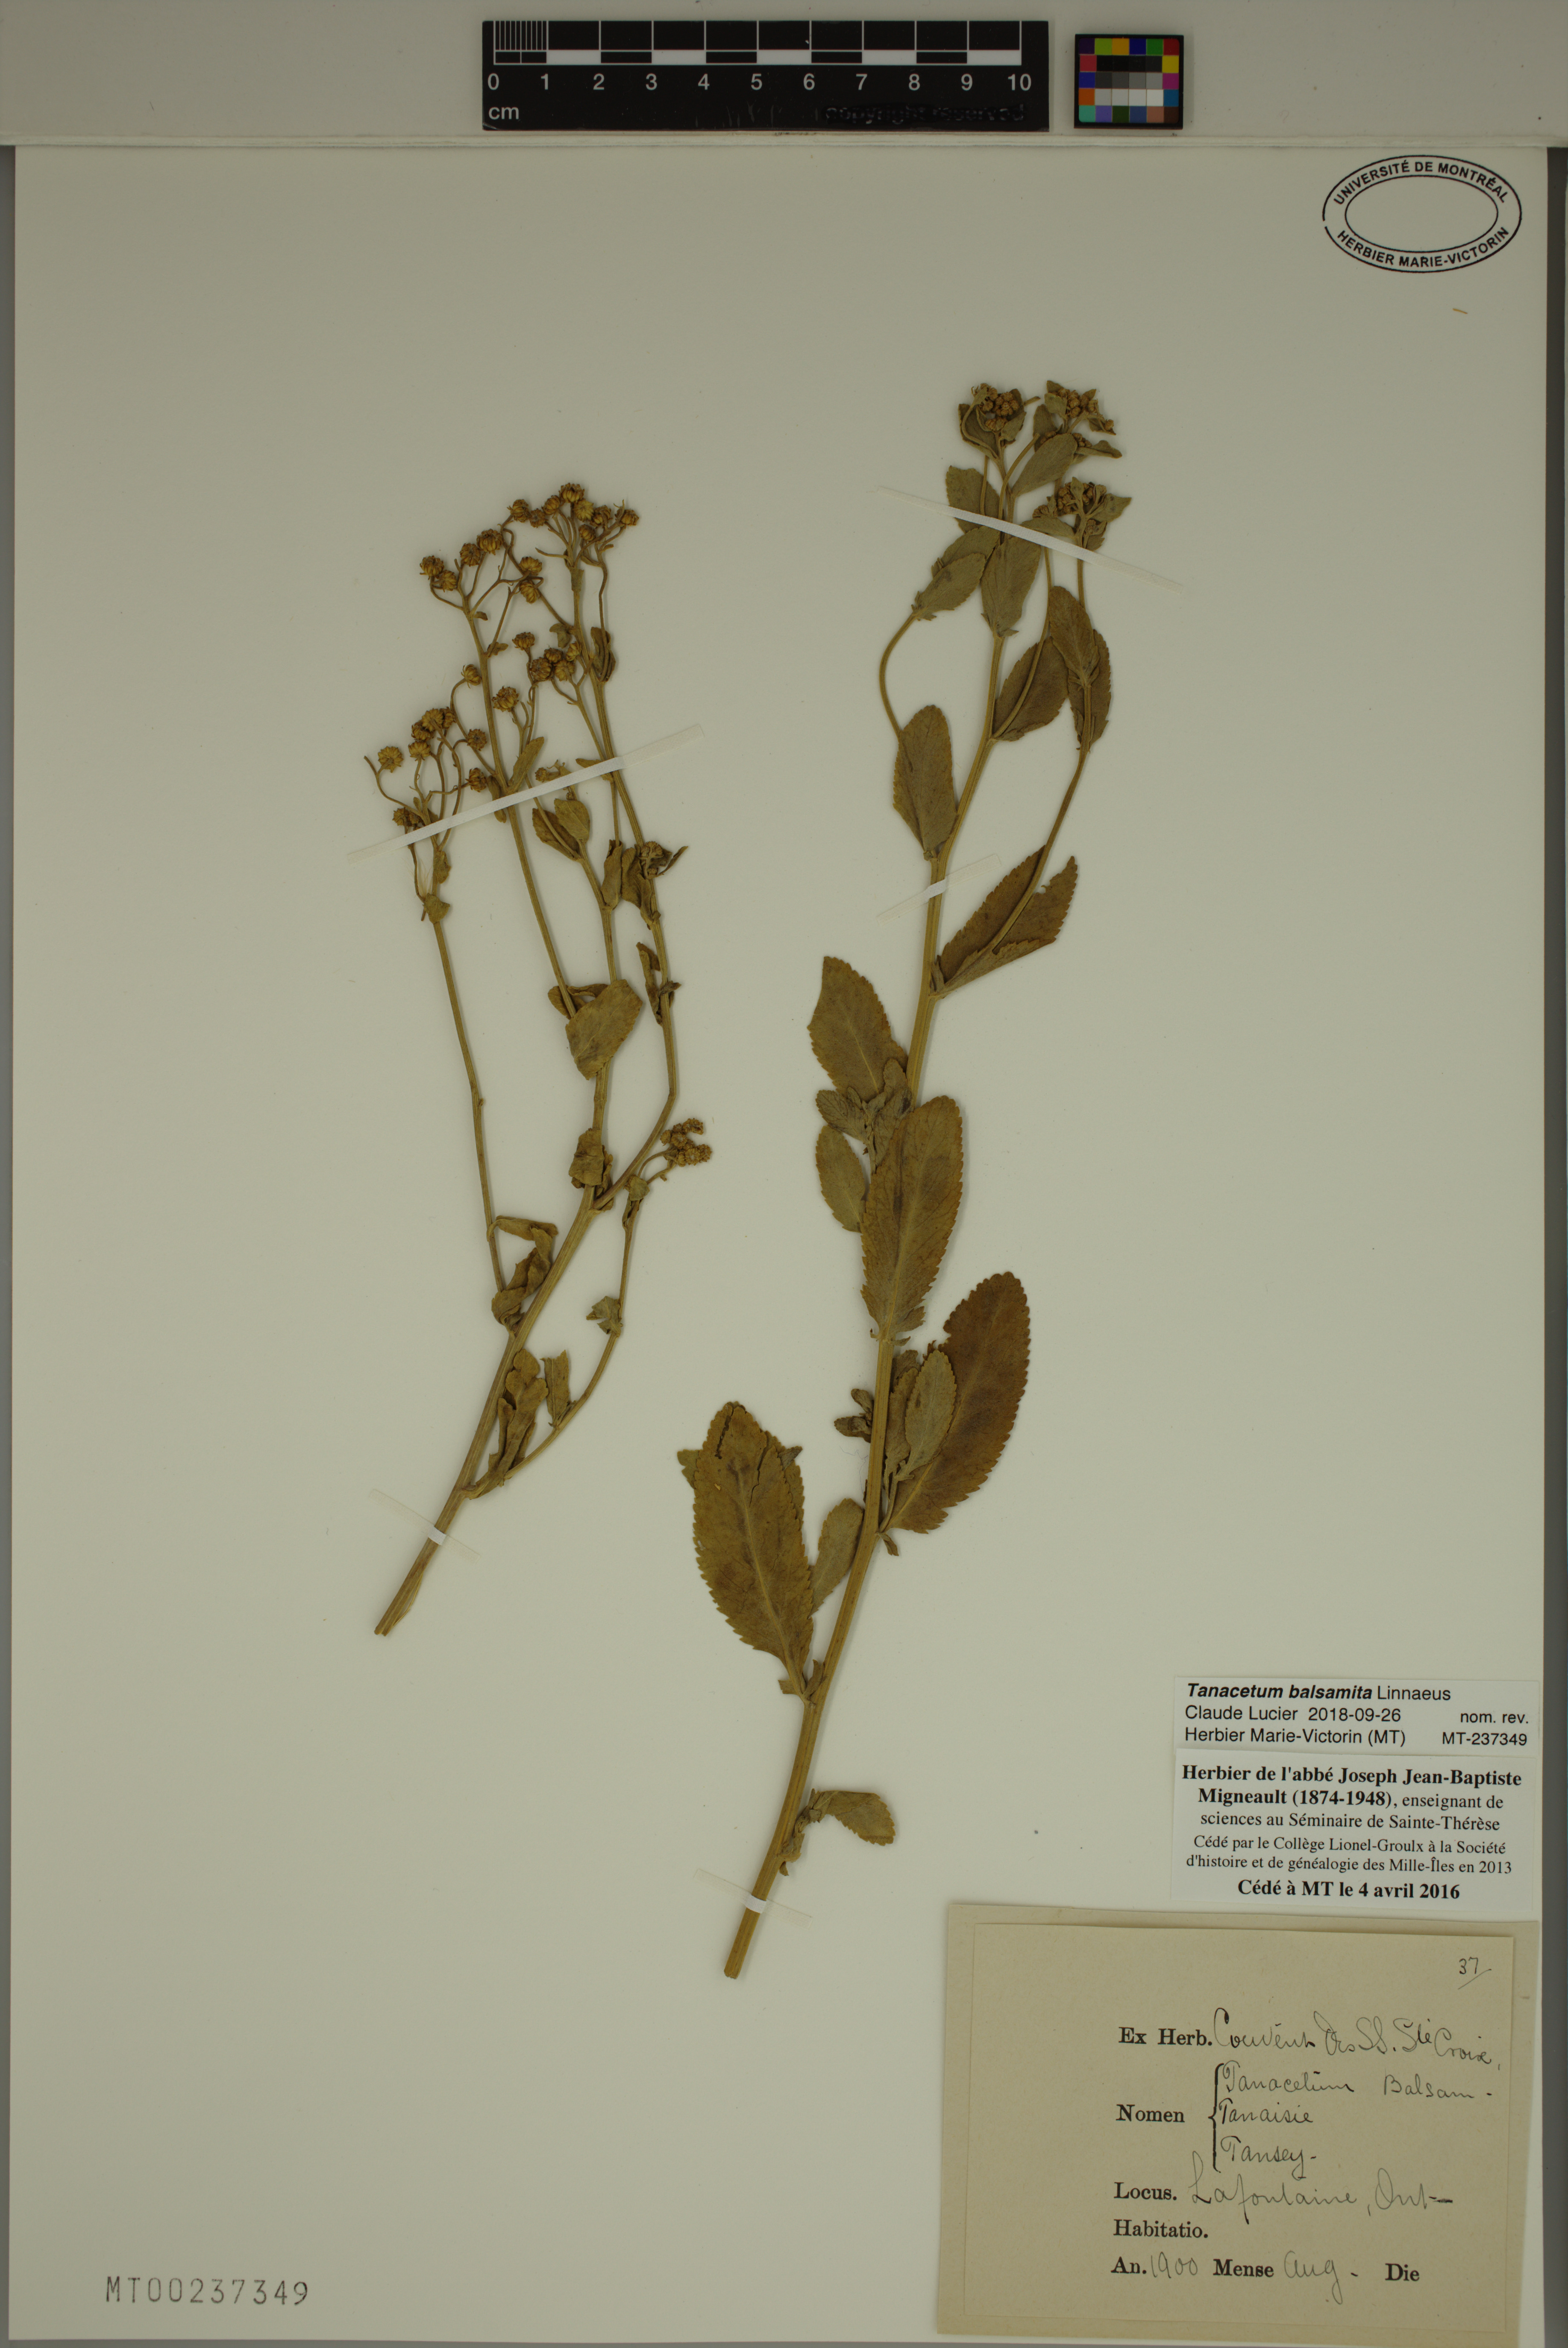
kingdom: Plantae
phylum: Tracheophyta
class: Magnoliopsida
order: Asterales
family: Asteraceae
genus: Tanacetum
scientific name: Tanacetum balsamita
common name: Costmary
